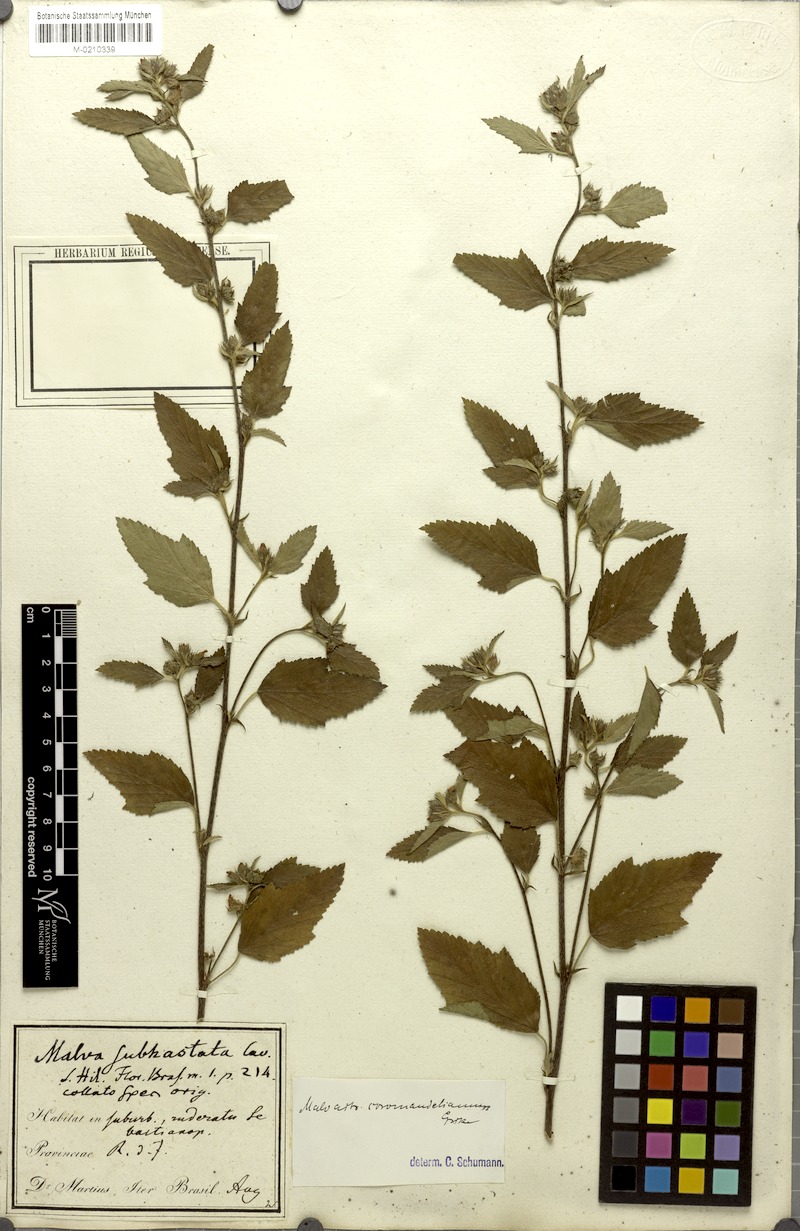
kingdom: Plantae
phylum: Tracheophyta
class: Magnoliopsida
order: Malvales
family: Malvaceae
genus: Malvastrum
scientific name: Malvastrum coromandelianum
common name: Threelobe false mallow
